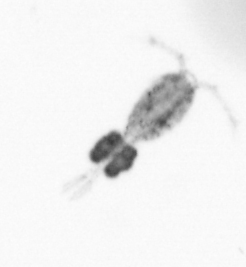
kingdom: Animalia
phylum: Arthropoda
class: Copepoda
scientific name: Copepoda
